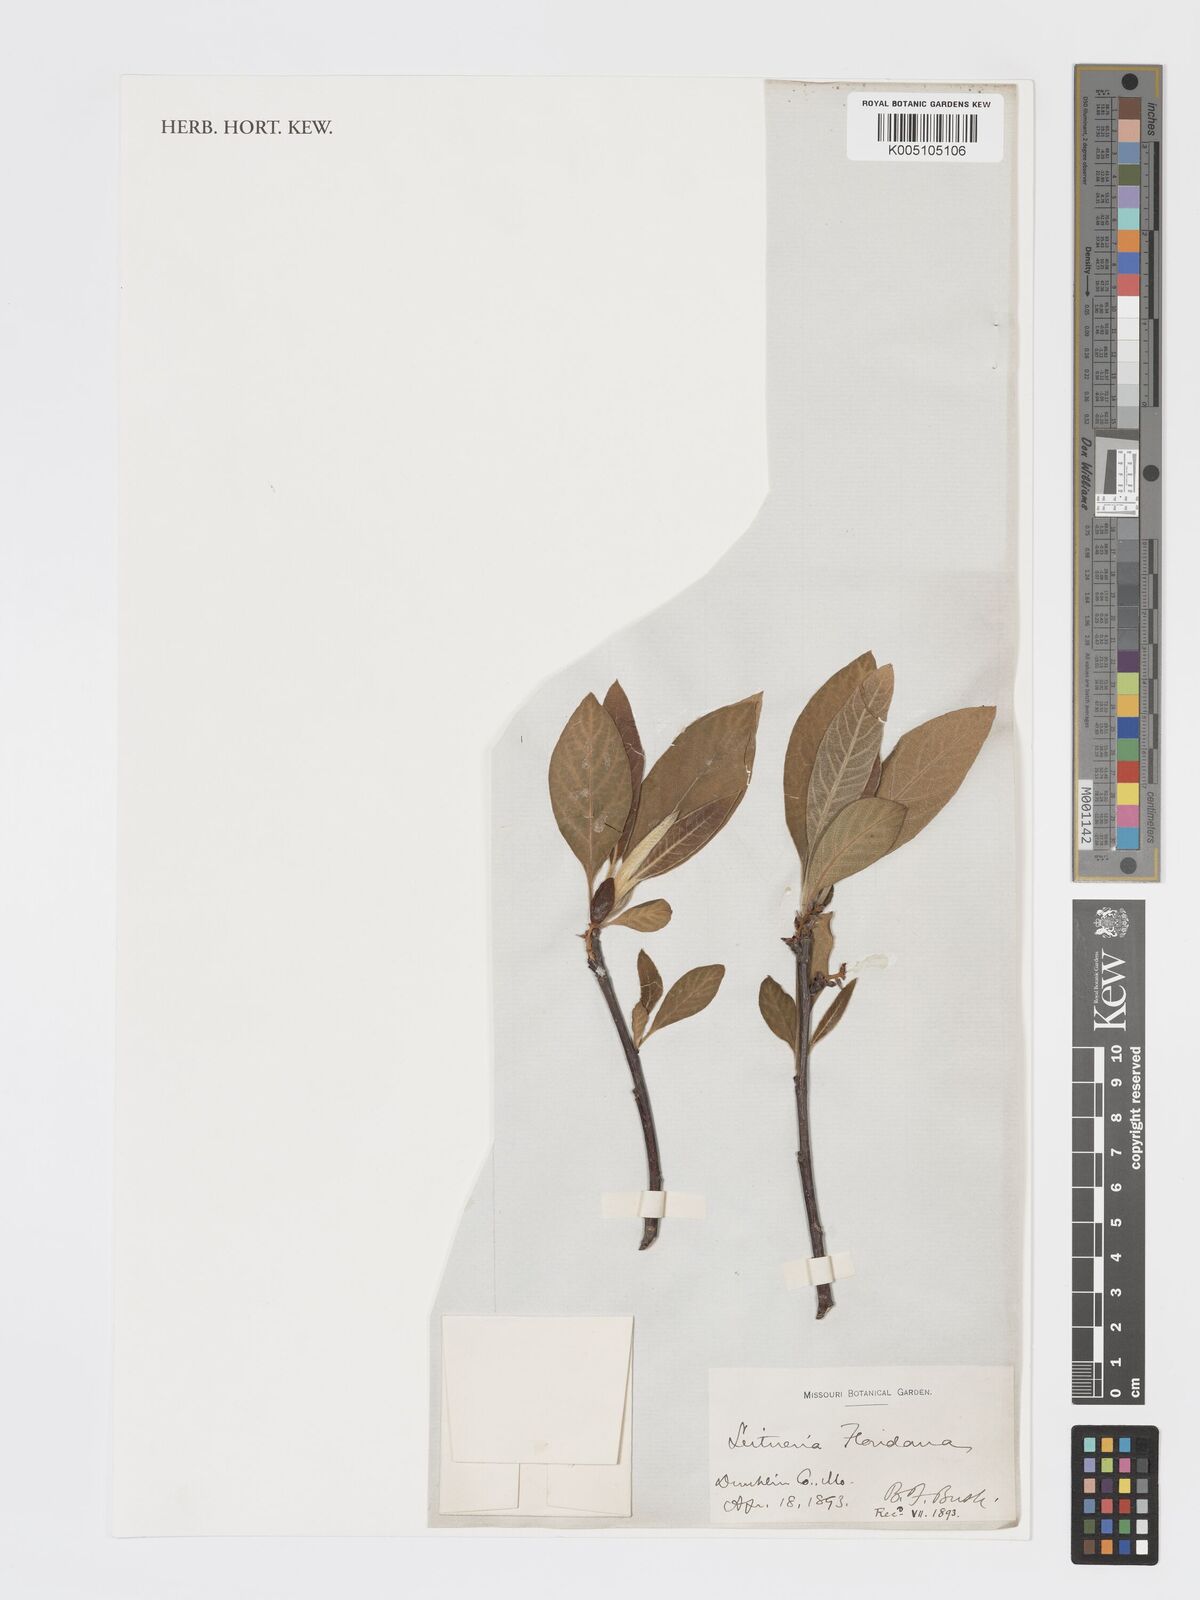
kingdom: Plantae
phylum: Tracheophyta
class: Magnoliopsida
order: Sapindales
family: Simaroubaceae
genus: Leitneria
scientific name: Leitneria floridana
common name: Corkwood
